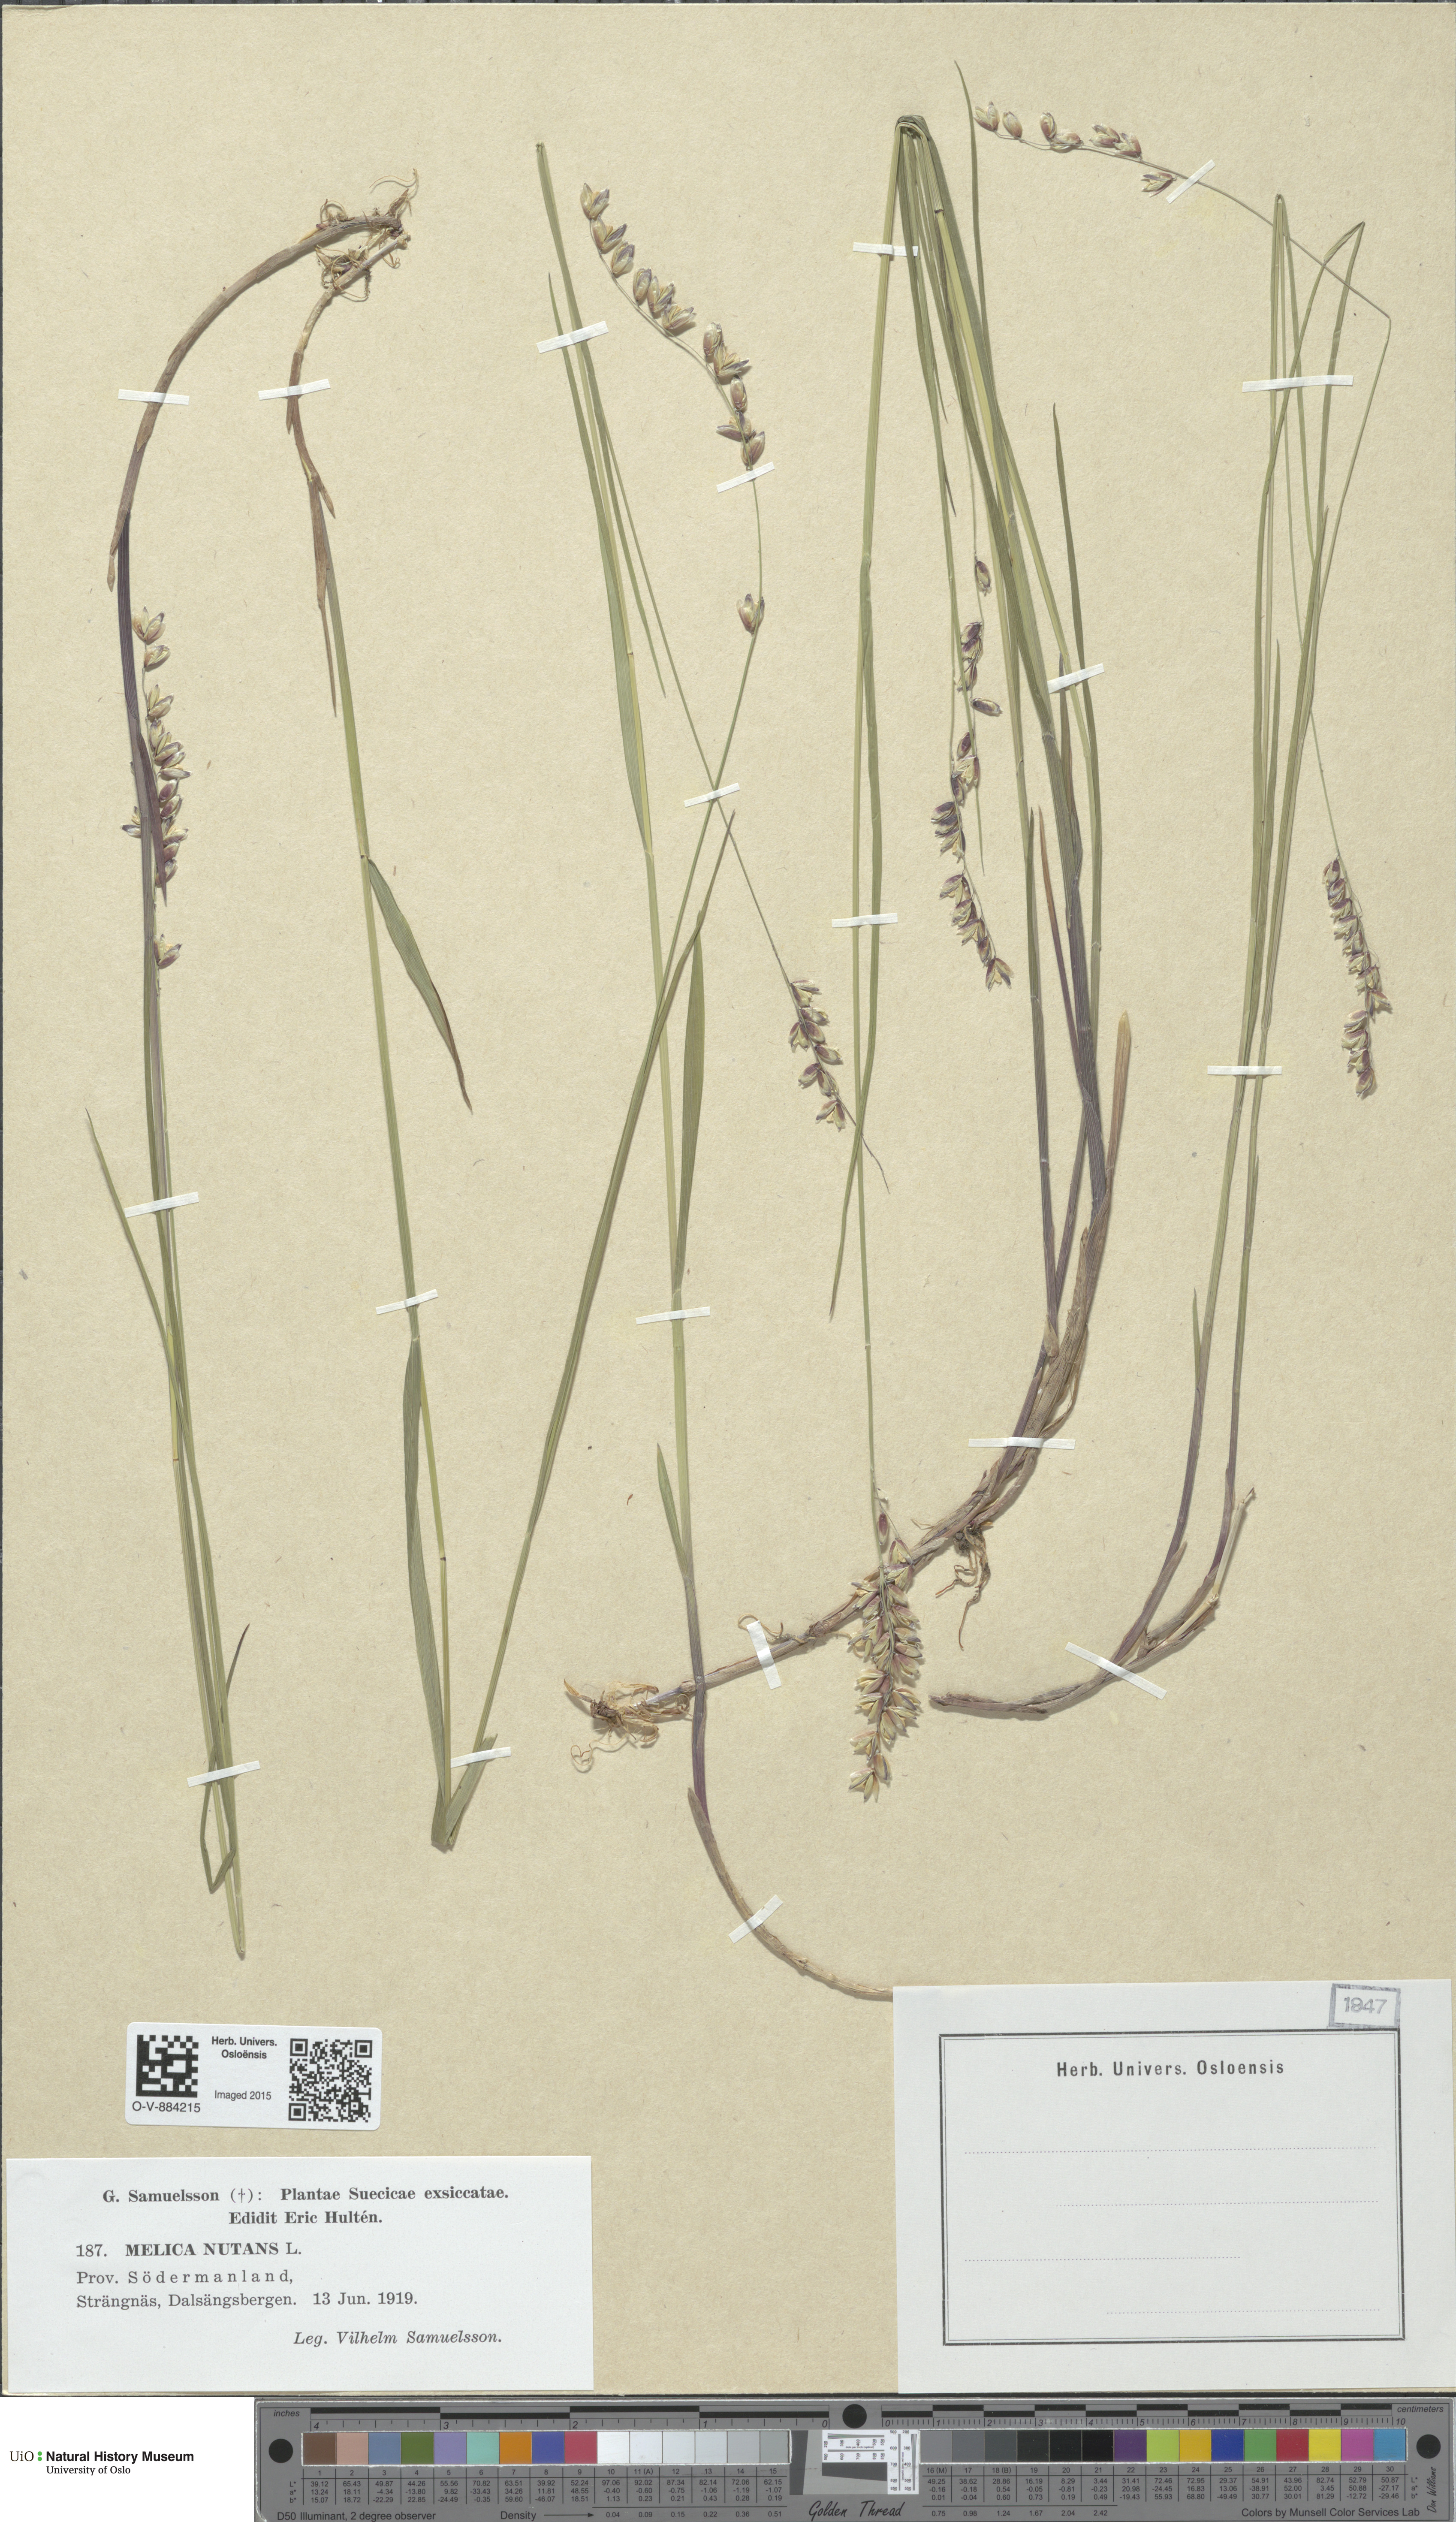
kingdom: Plantae
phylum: Tracheophyta
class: Liliopsida
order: Poales
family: Poaceae
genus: Melica
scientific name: Melica nutans
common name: Mountain melick
